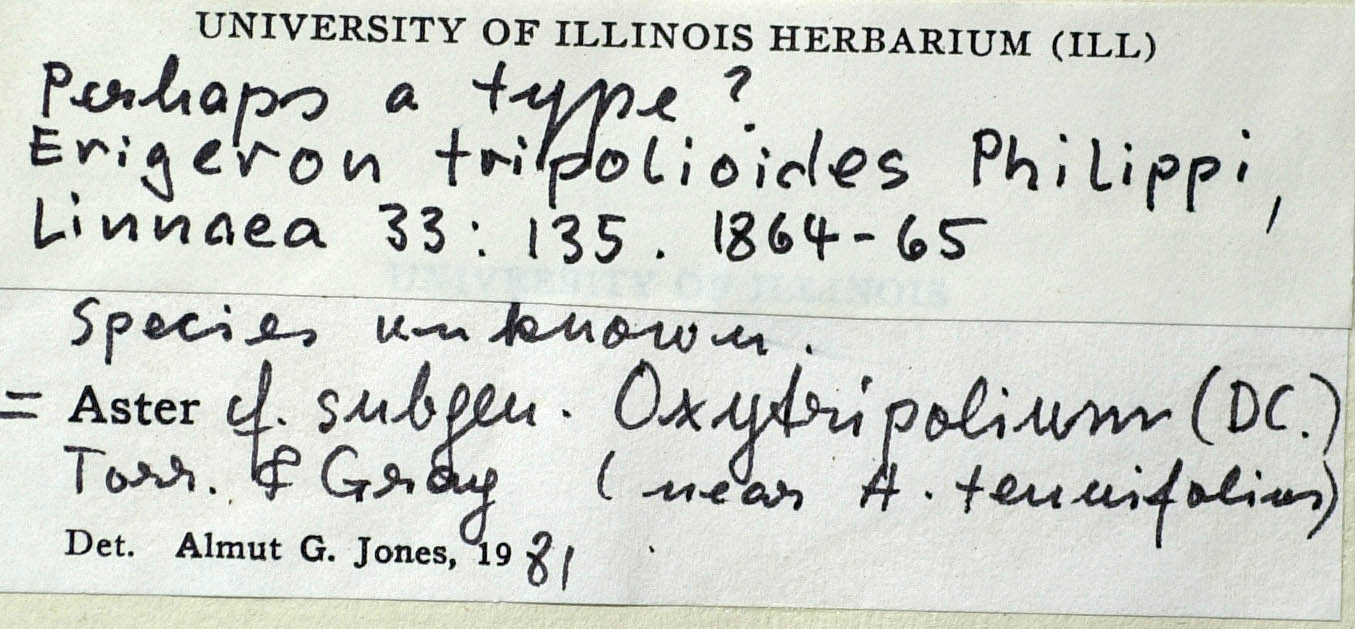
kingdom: Plantae
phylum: Tracheophyta
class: Magnoliopsida
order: Asterales
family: Asteraceae
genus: Symphyotrichum
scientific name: Symphyotrichum squamatum
